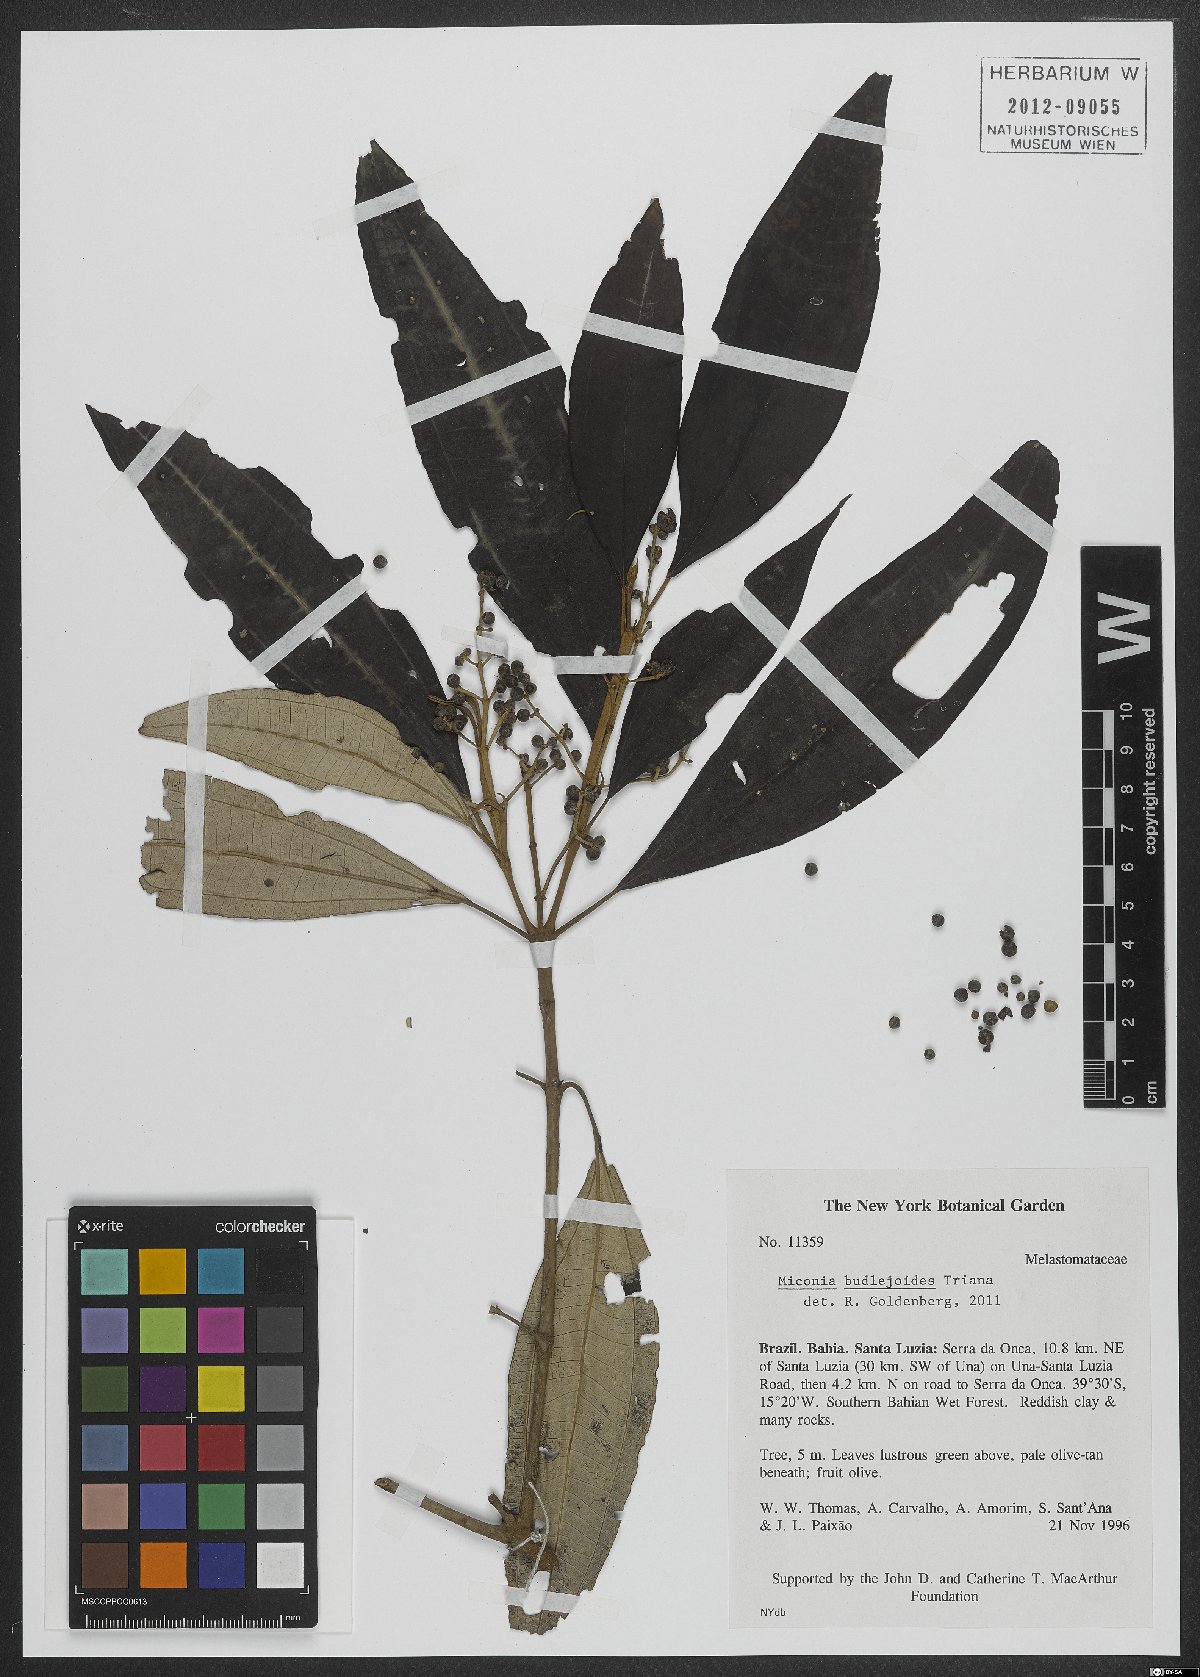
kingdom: Plantae
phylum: Tracheophyta
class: Magnoliopsida
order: Myrtales
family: Melastomataceae
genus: Miconia
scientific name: Miconia buddlejoides
